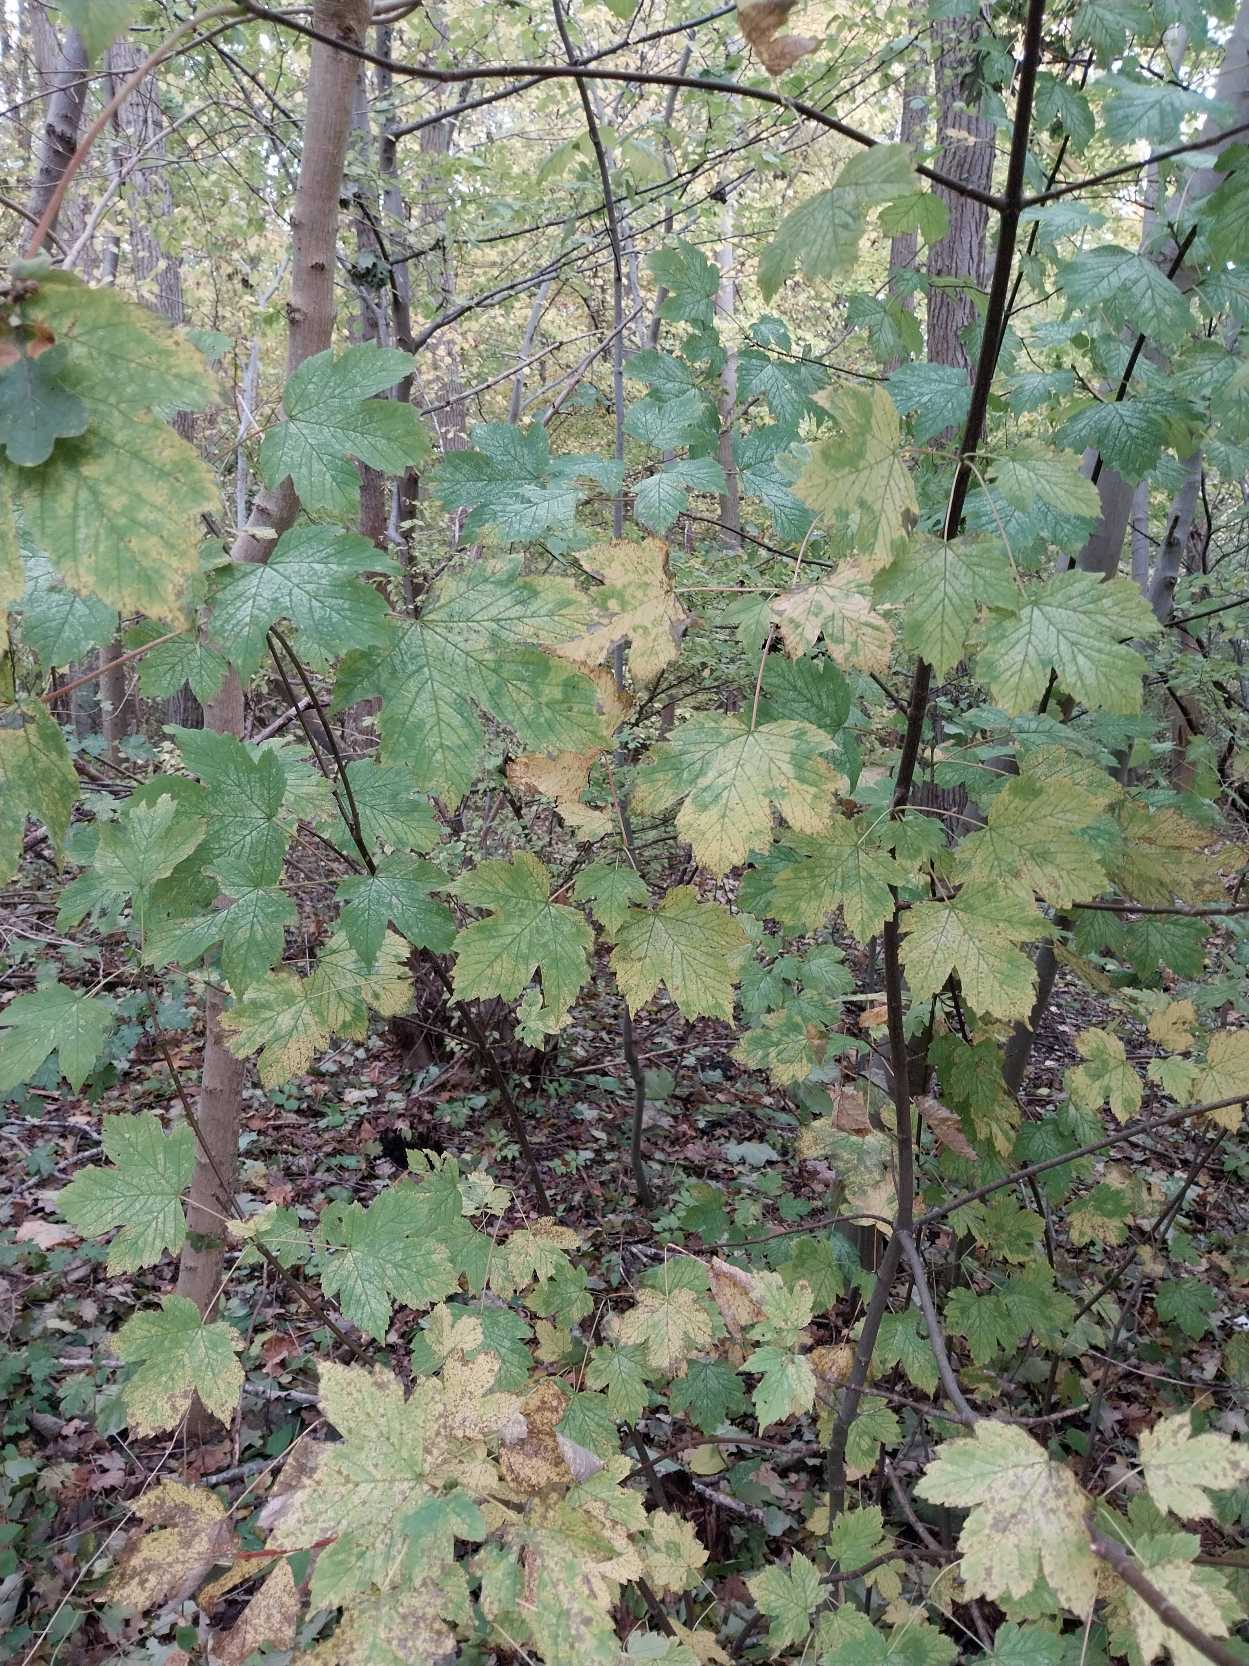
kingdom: Plantae
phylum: Tracheophyta
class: Magnoliopsida
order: Sapindales
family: Sapindaceae
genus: Acer
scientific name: Acer pseudoplatanus
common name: Ahorn
